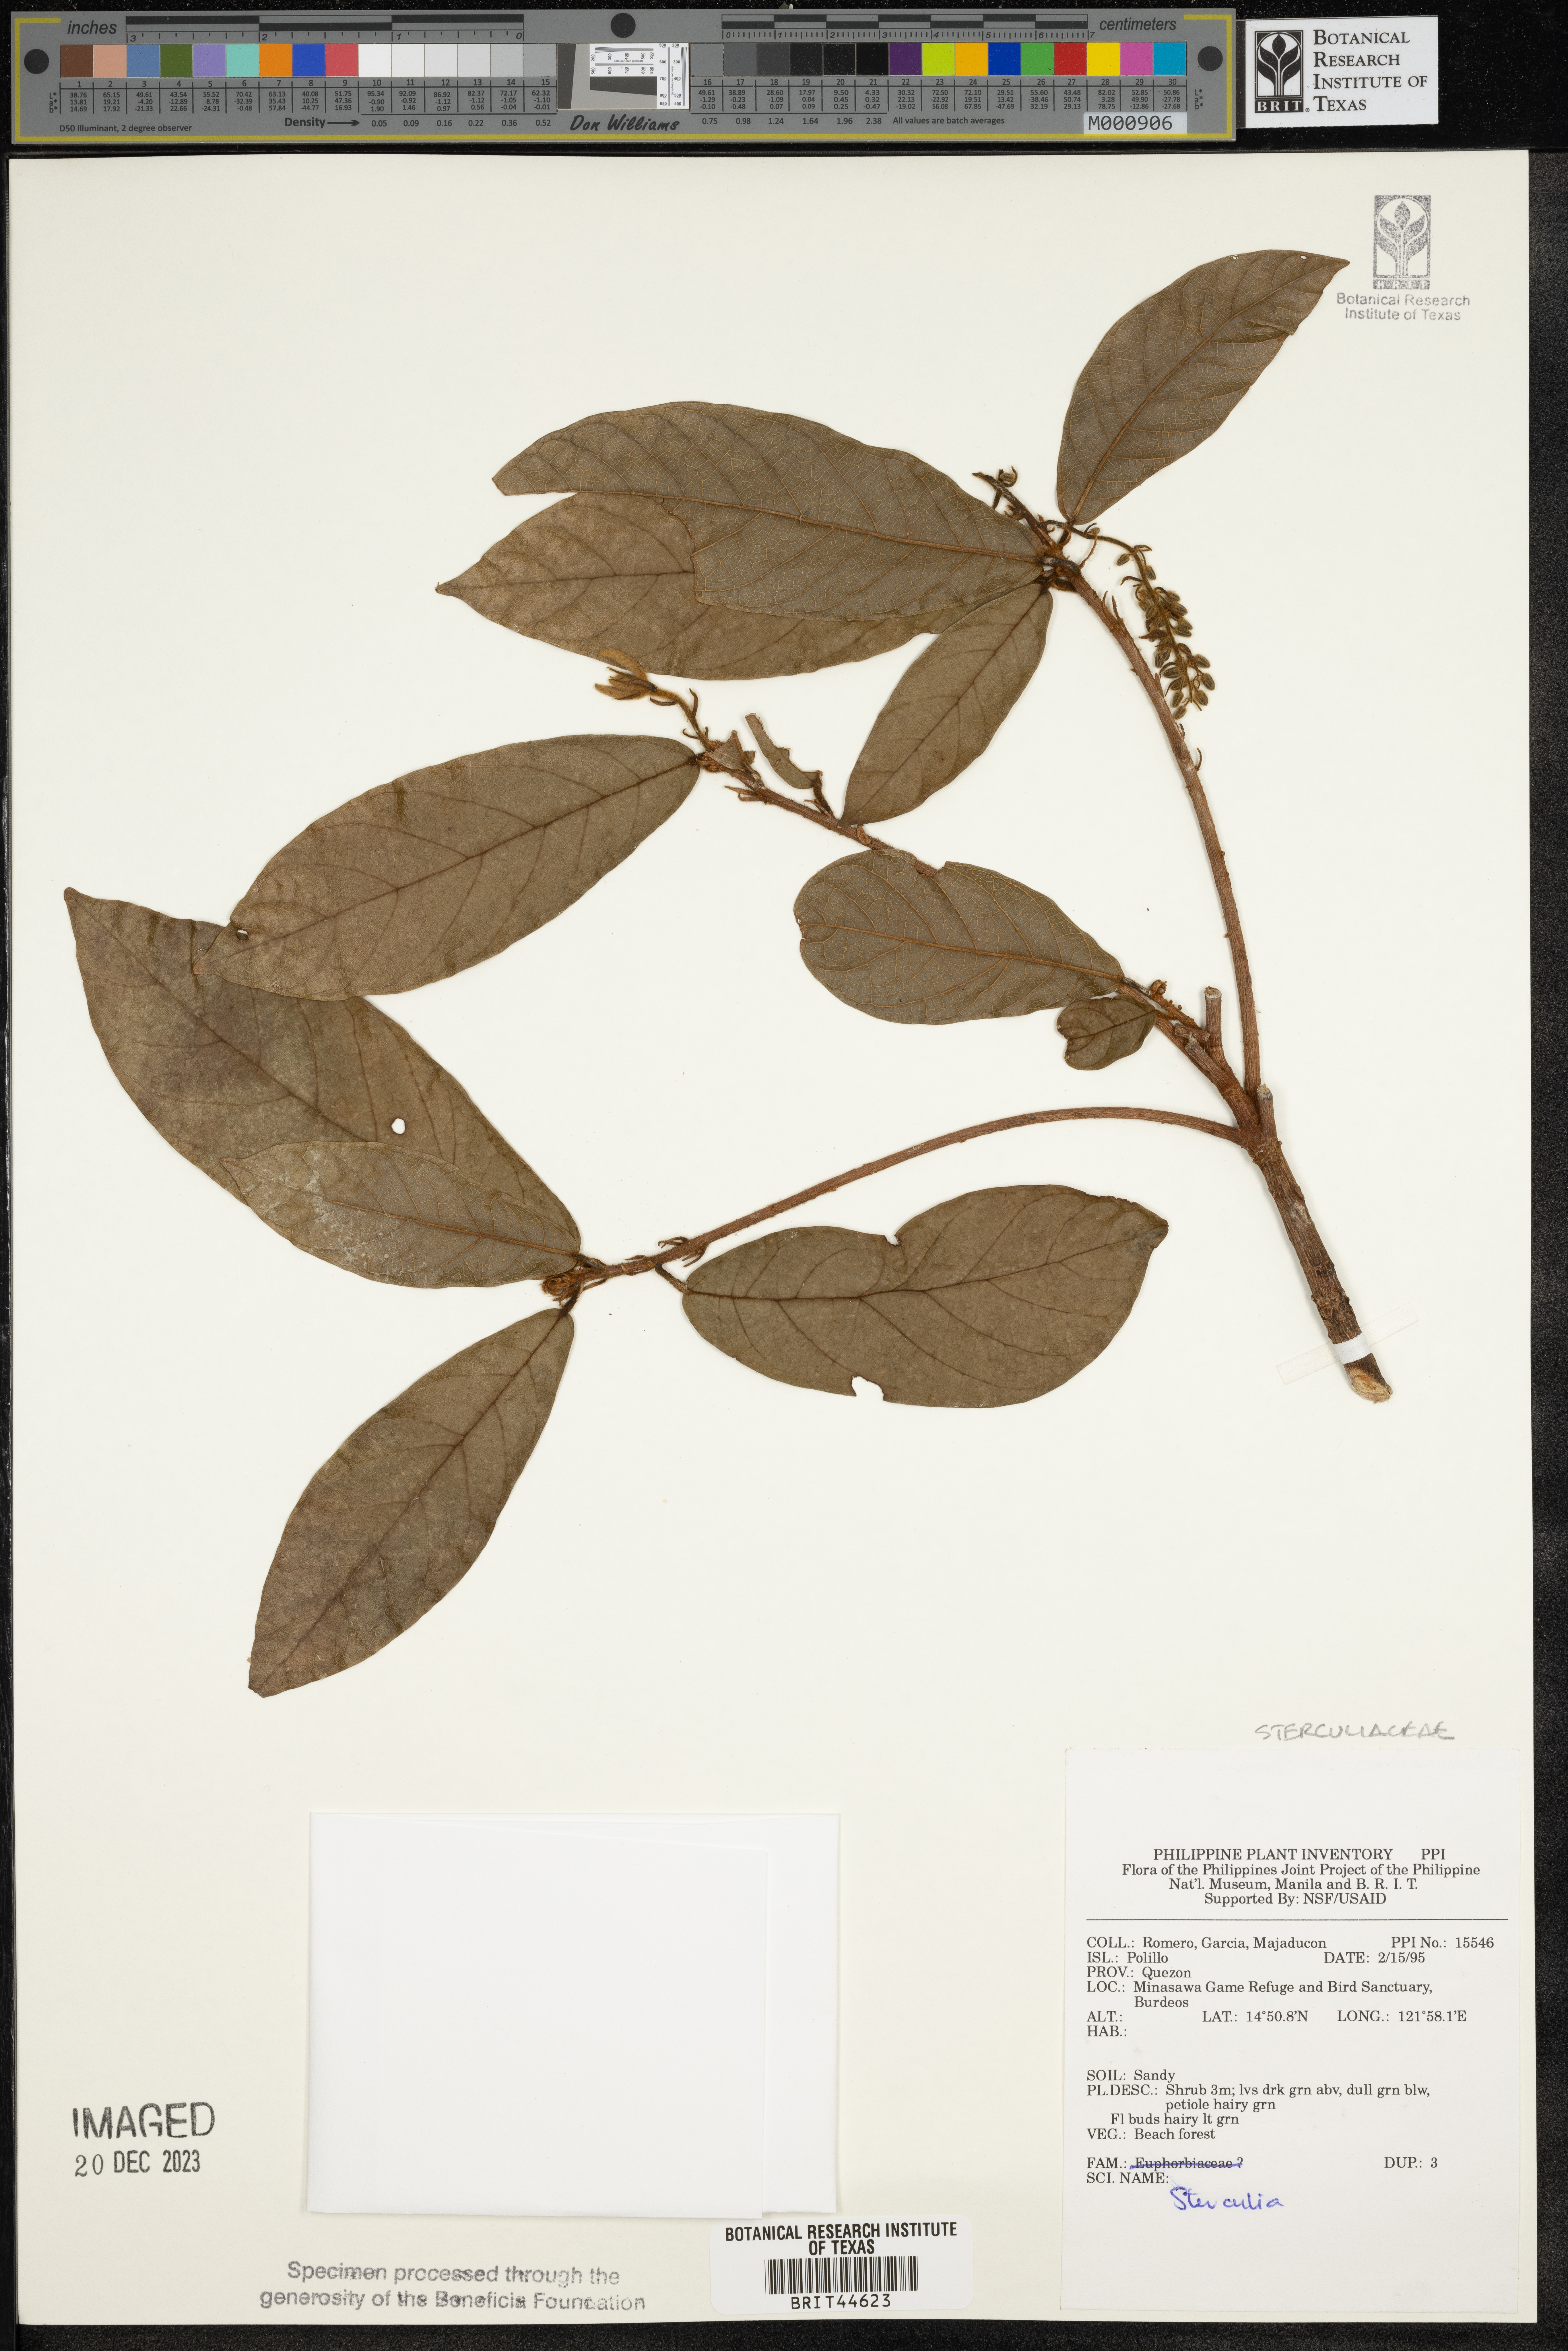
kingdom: Plantae
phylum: Tracheophyta
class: Magnoliopsida
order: Malvales
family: Malvaceae
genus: Sterculia
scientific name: Sterculia
